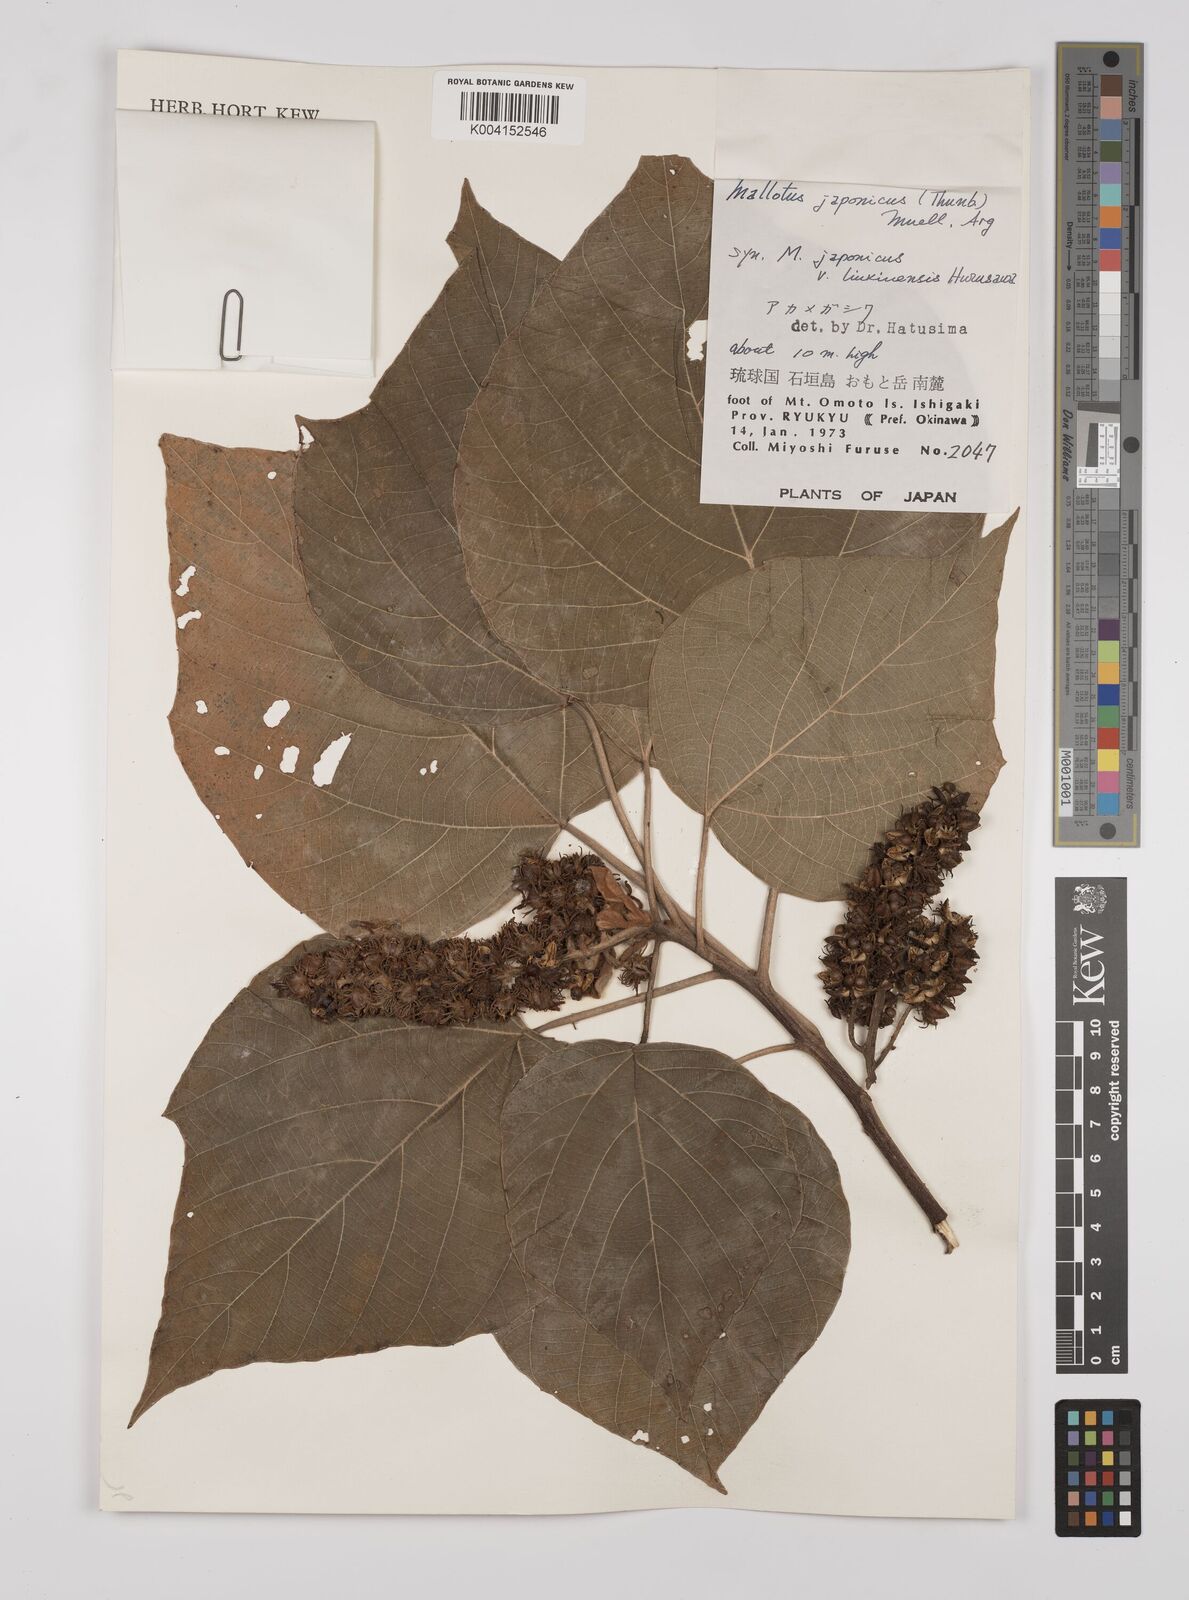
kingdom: Plantae
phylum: Tracheophyta
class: Magnoliopsida
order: Malpighiales
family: Euphorbiaceae
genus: Mallotus
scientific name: Mallotus japonicus
